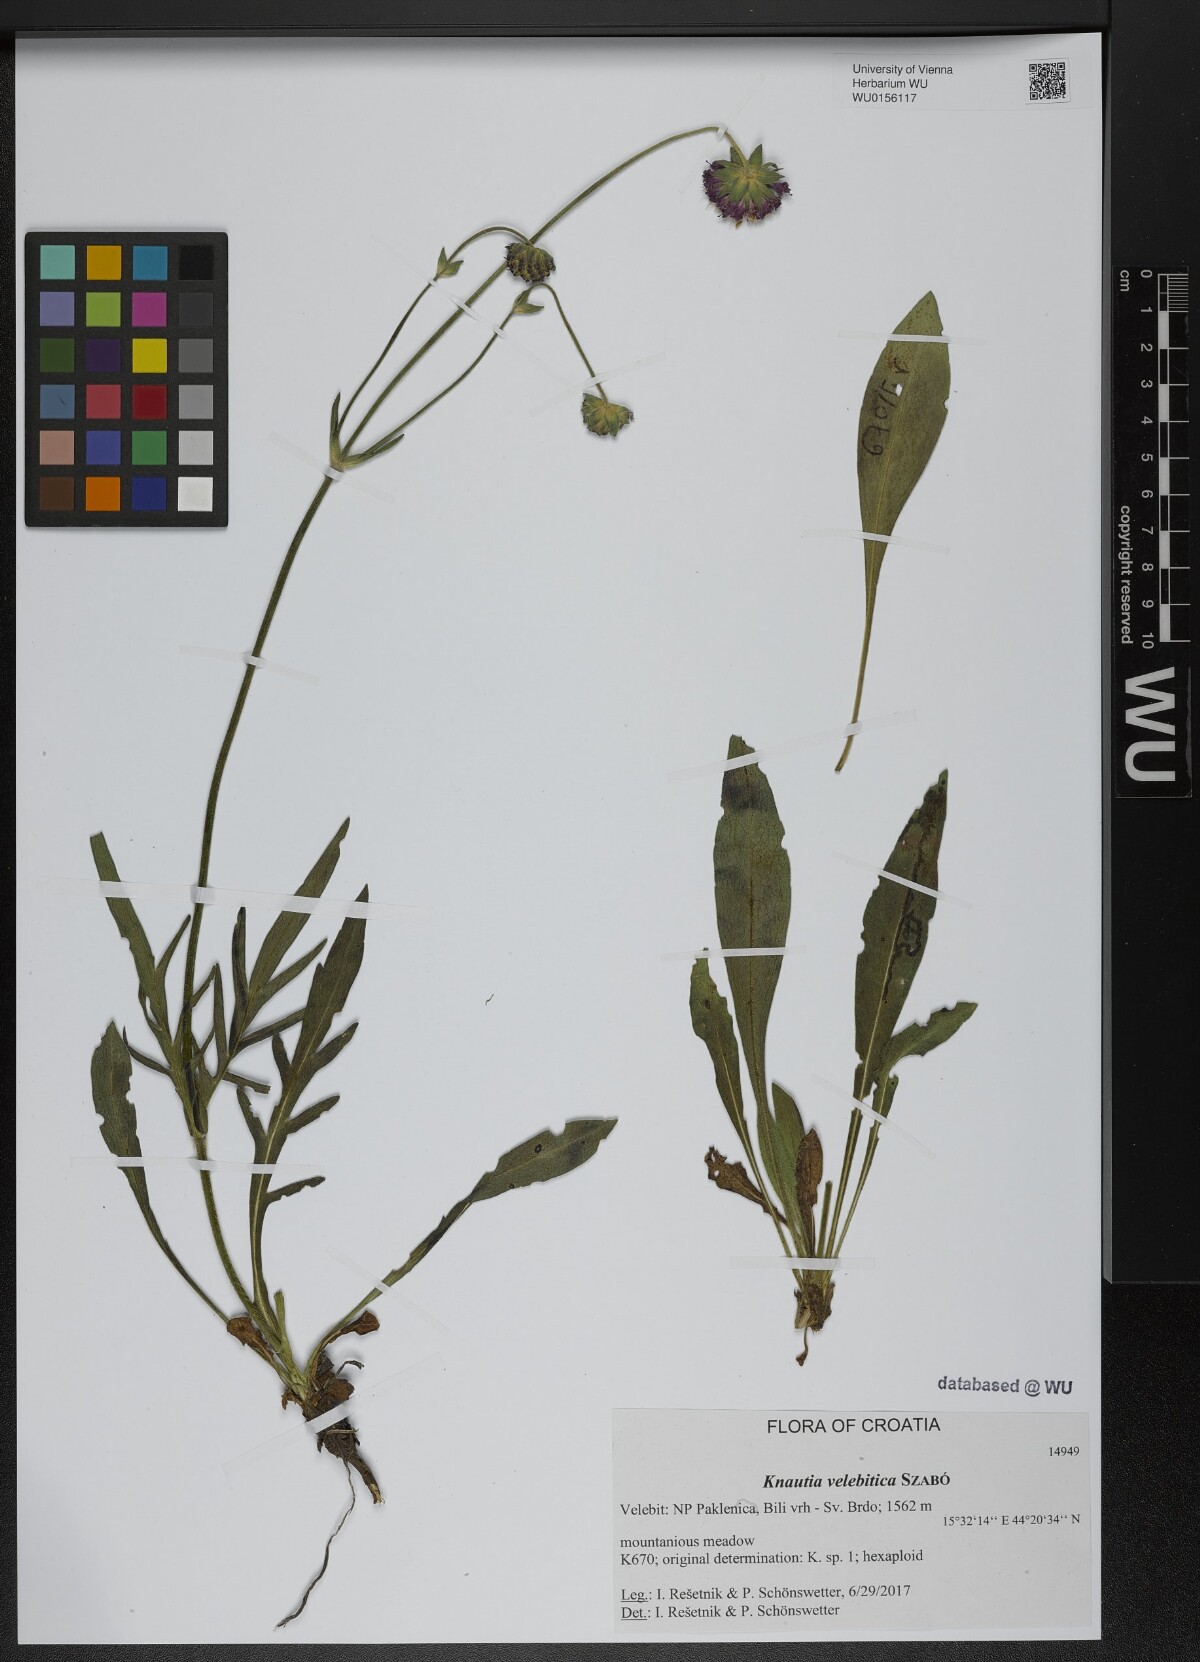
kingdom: Plantae
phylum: Tracheophyta
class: Magnoliopsida
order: Dipsacales
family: Caprifoliaceae
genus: Knautia
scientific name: Knautia velebitica
